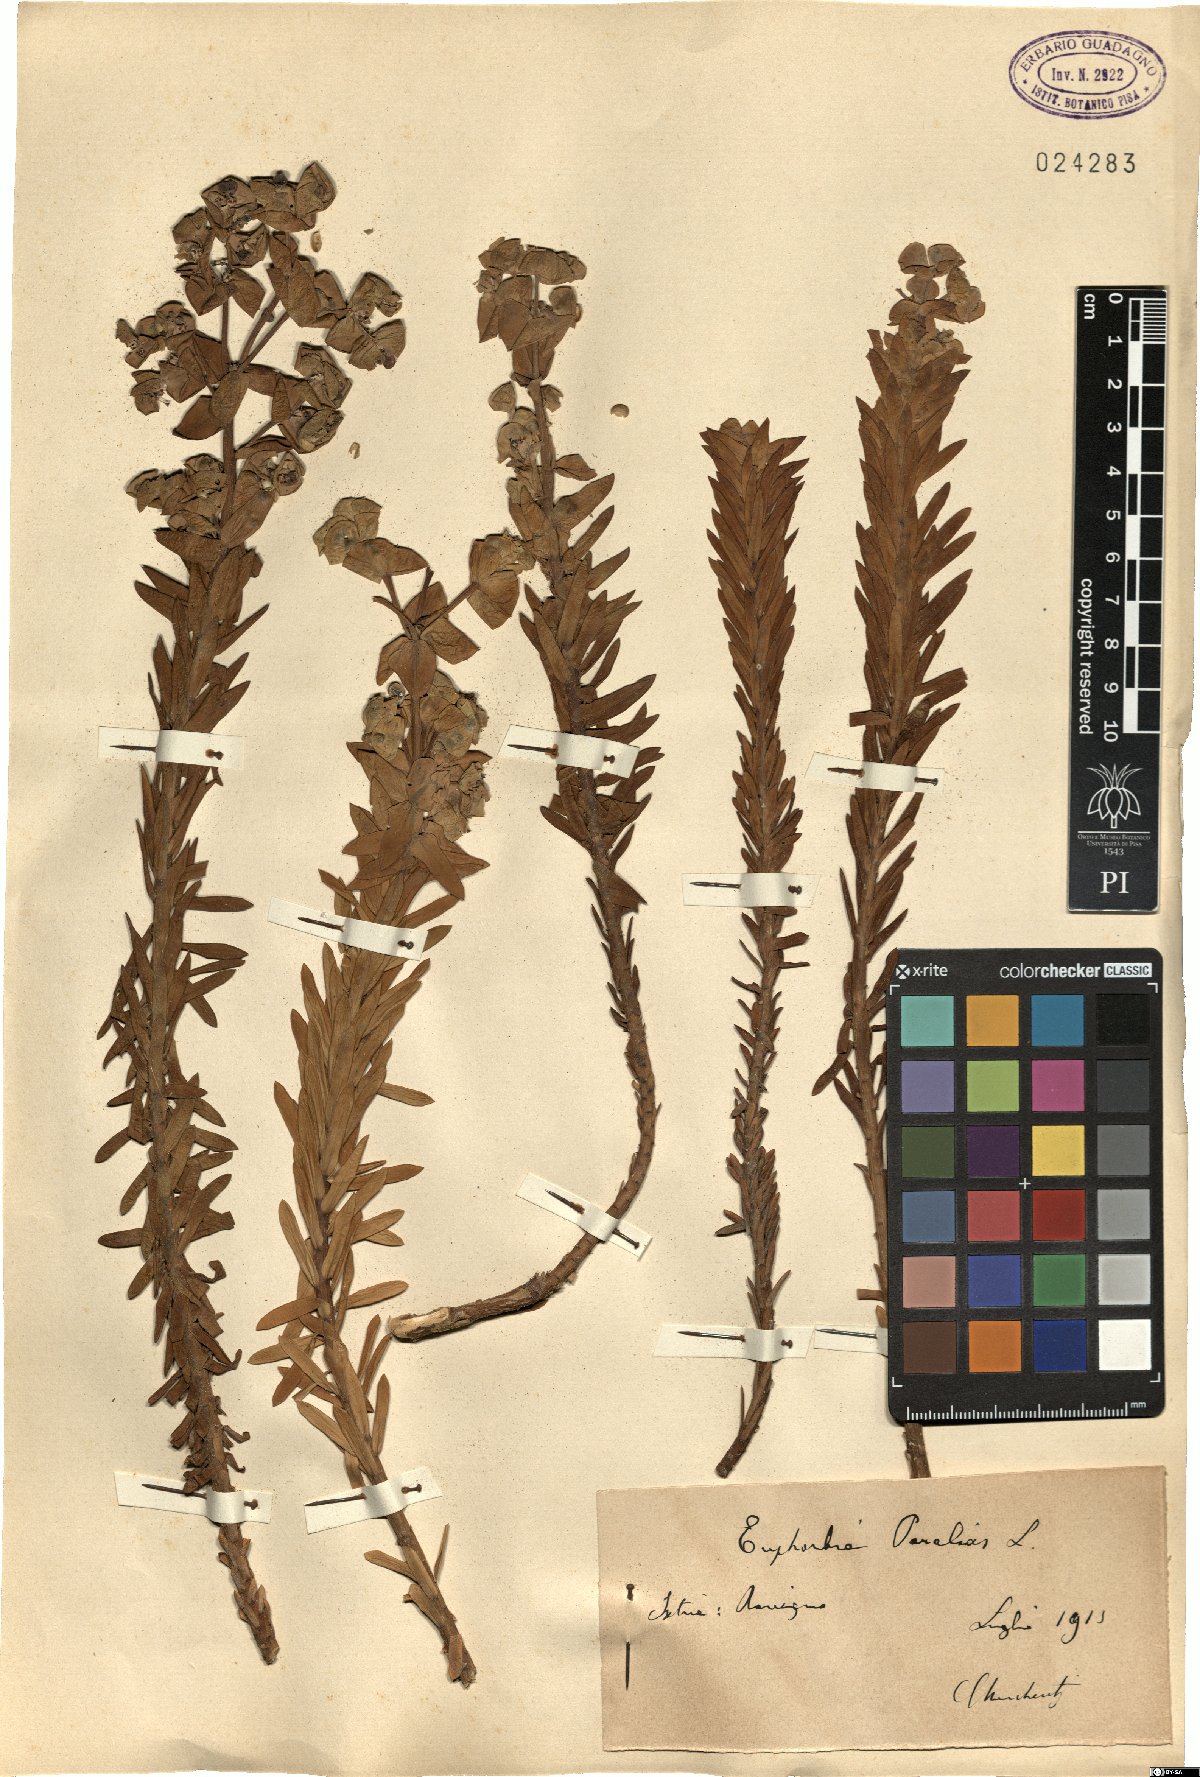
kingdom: Plantae
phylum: Tracheophyta
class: Magnoliopsida
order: Malpighiales
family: Euphorbiaceae
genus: Euphorbia
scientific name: Euphorbia paralias
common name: Sea spurge
